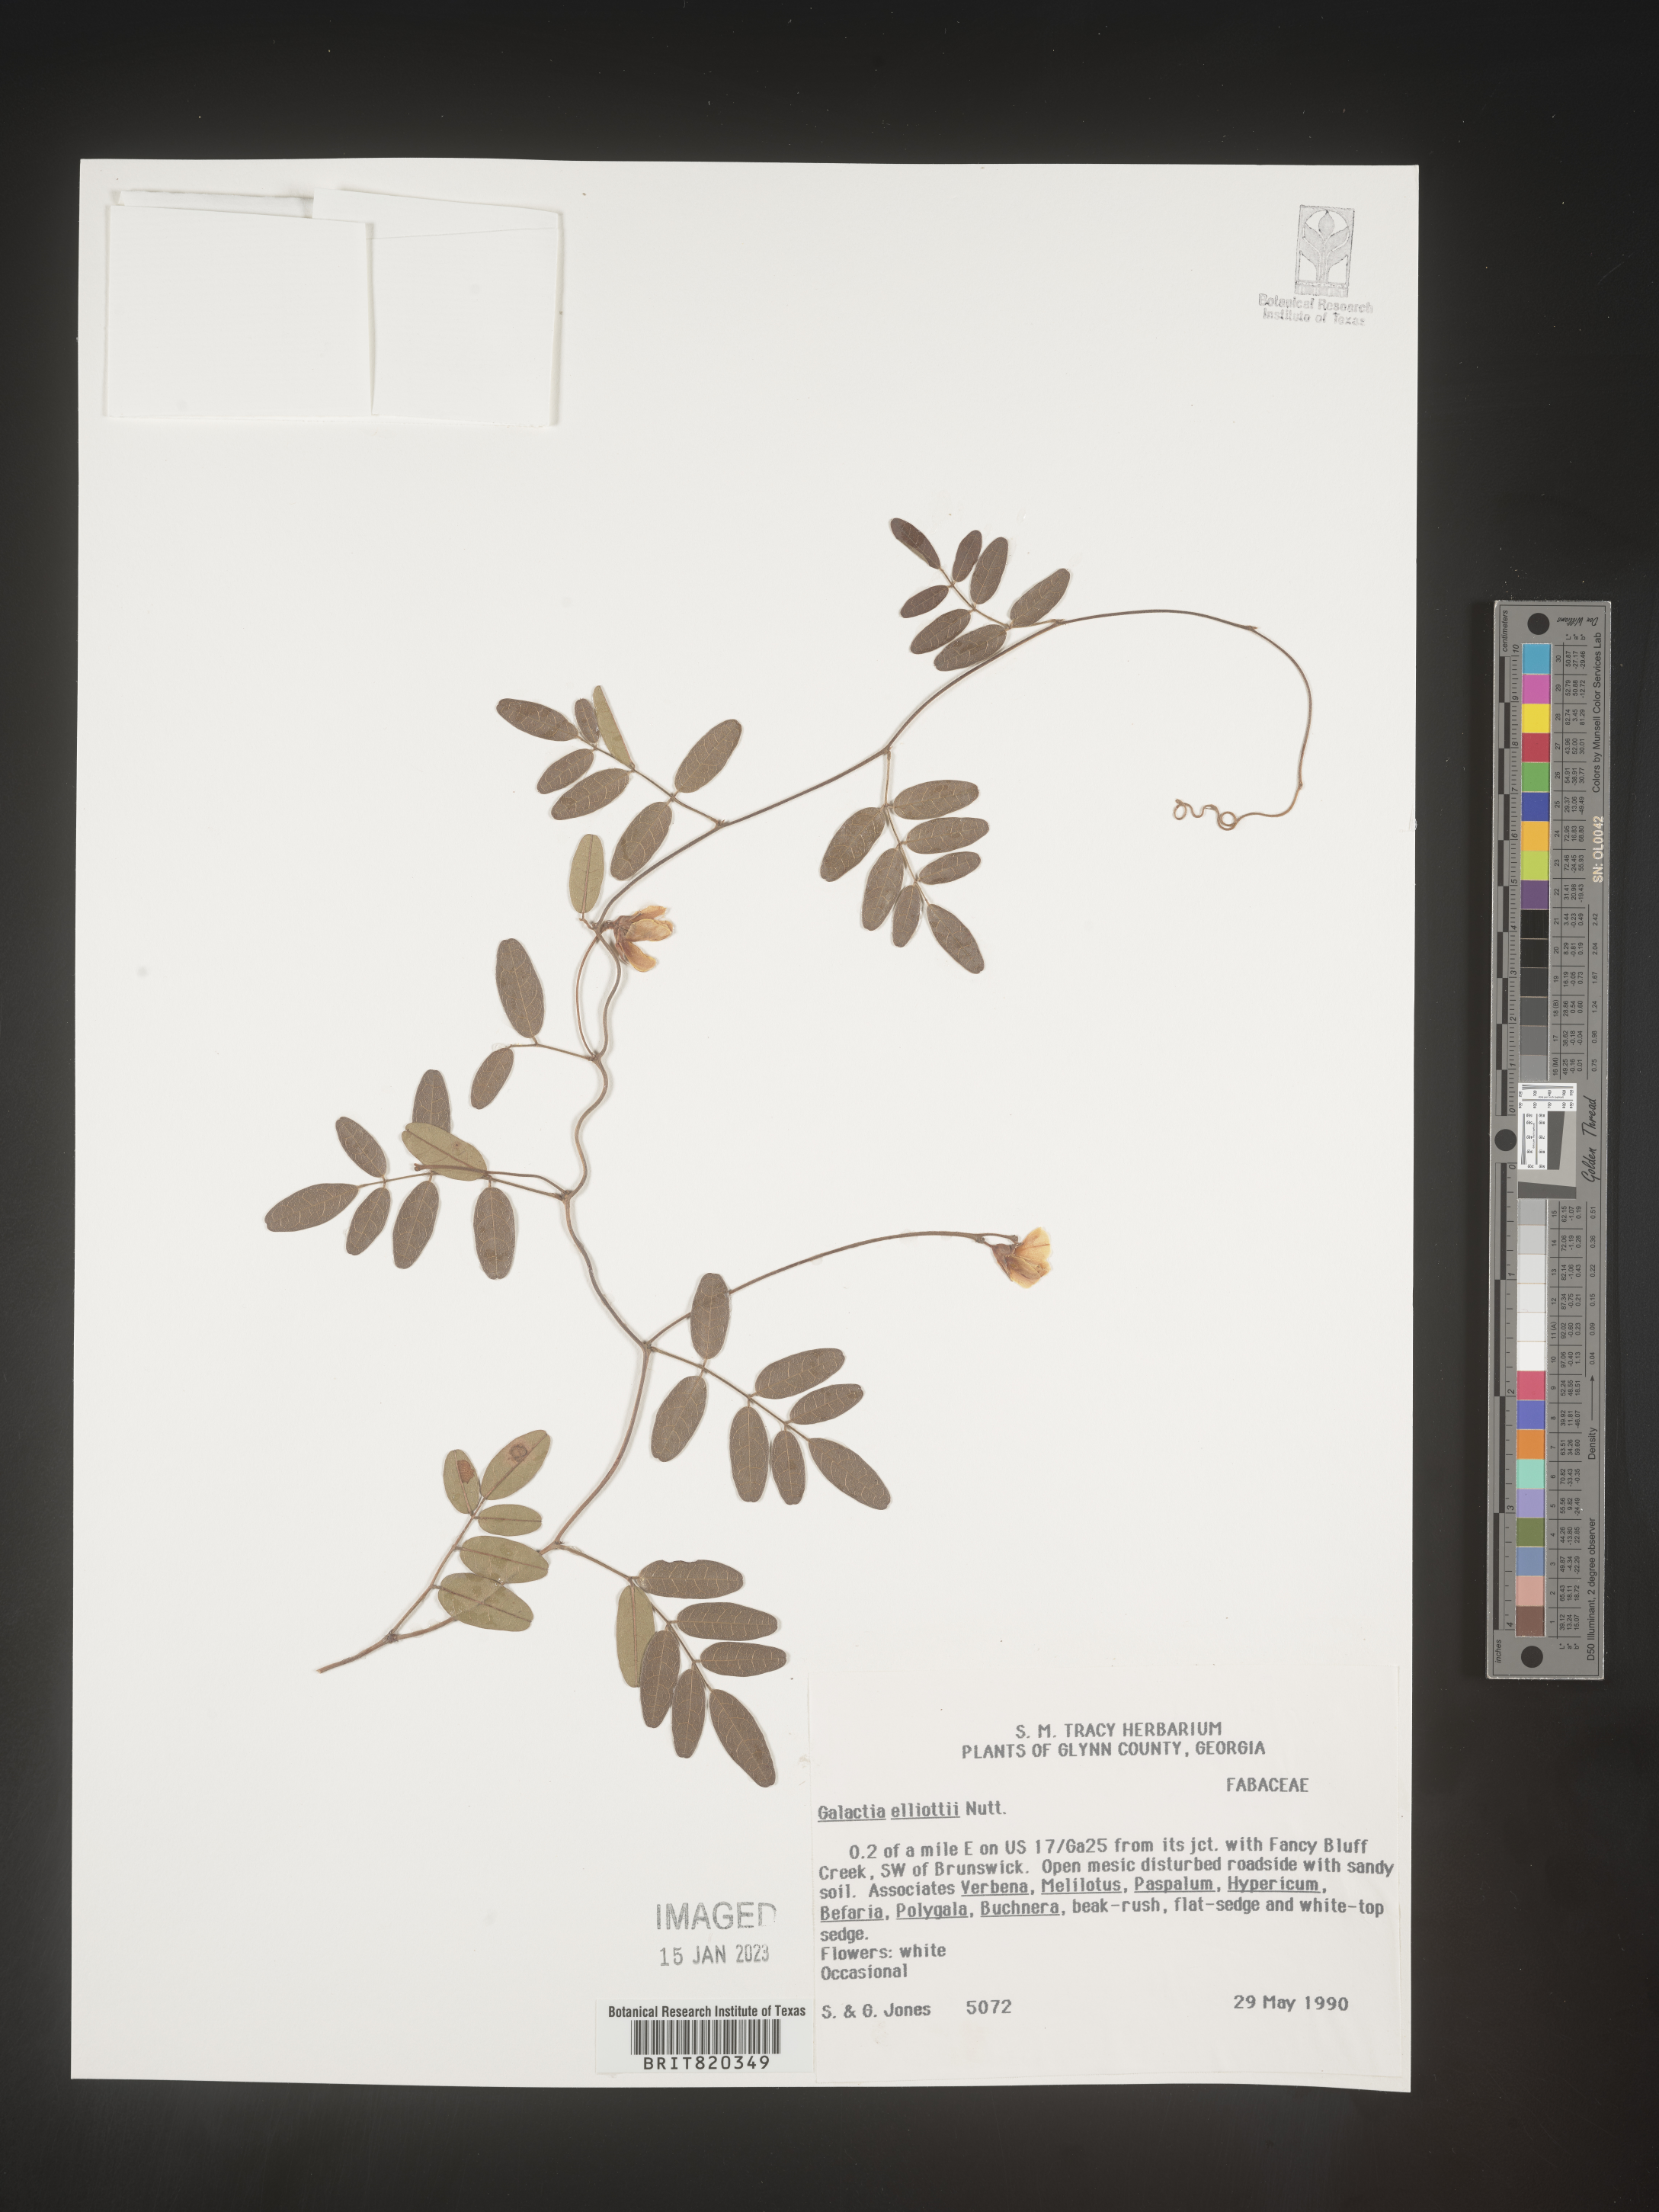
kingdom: Plantae
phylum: Tracheophyta
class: Magnoliopsida
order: Fabales
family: Fabaceae
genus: Galactia
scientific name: Galactia elliottii
